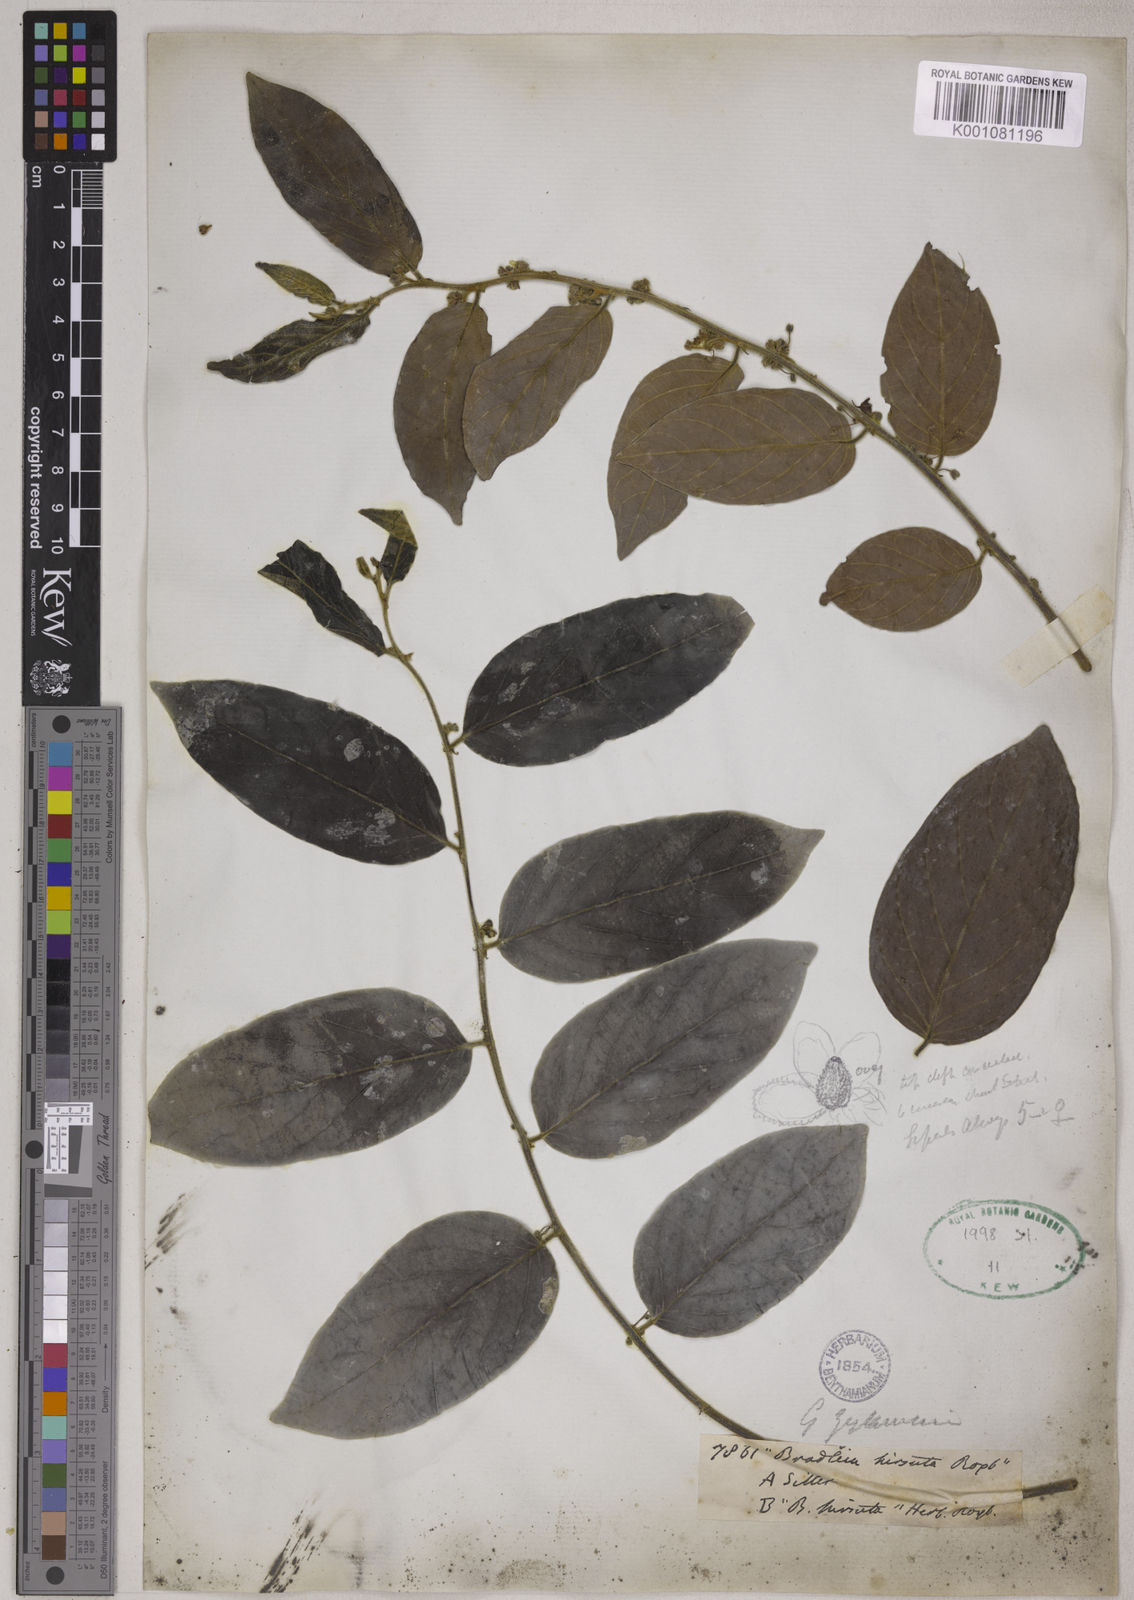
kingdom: Plantae
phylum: Tracheophyta
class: Magnoliopsida
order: Malpighiales
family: Phyllanthaceae
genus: Glochidion
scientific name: Glochidion zeylanicum
